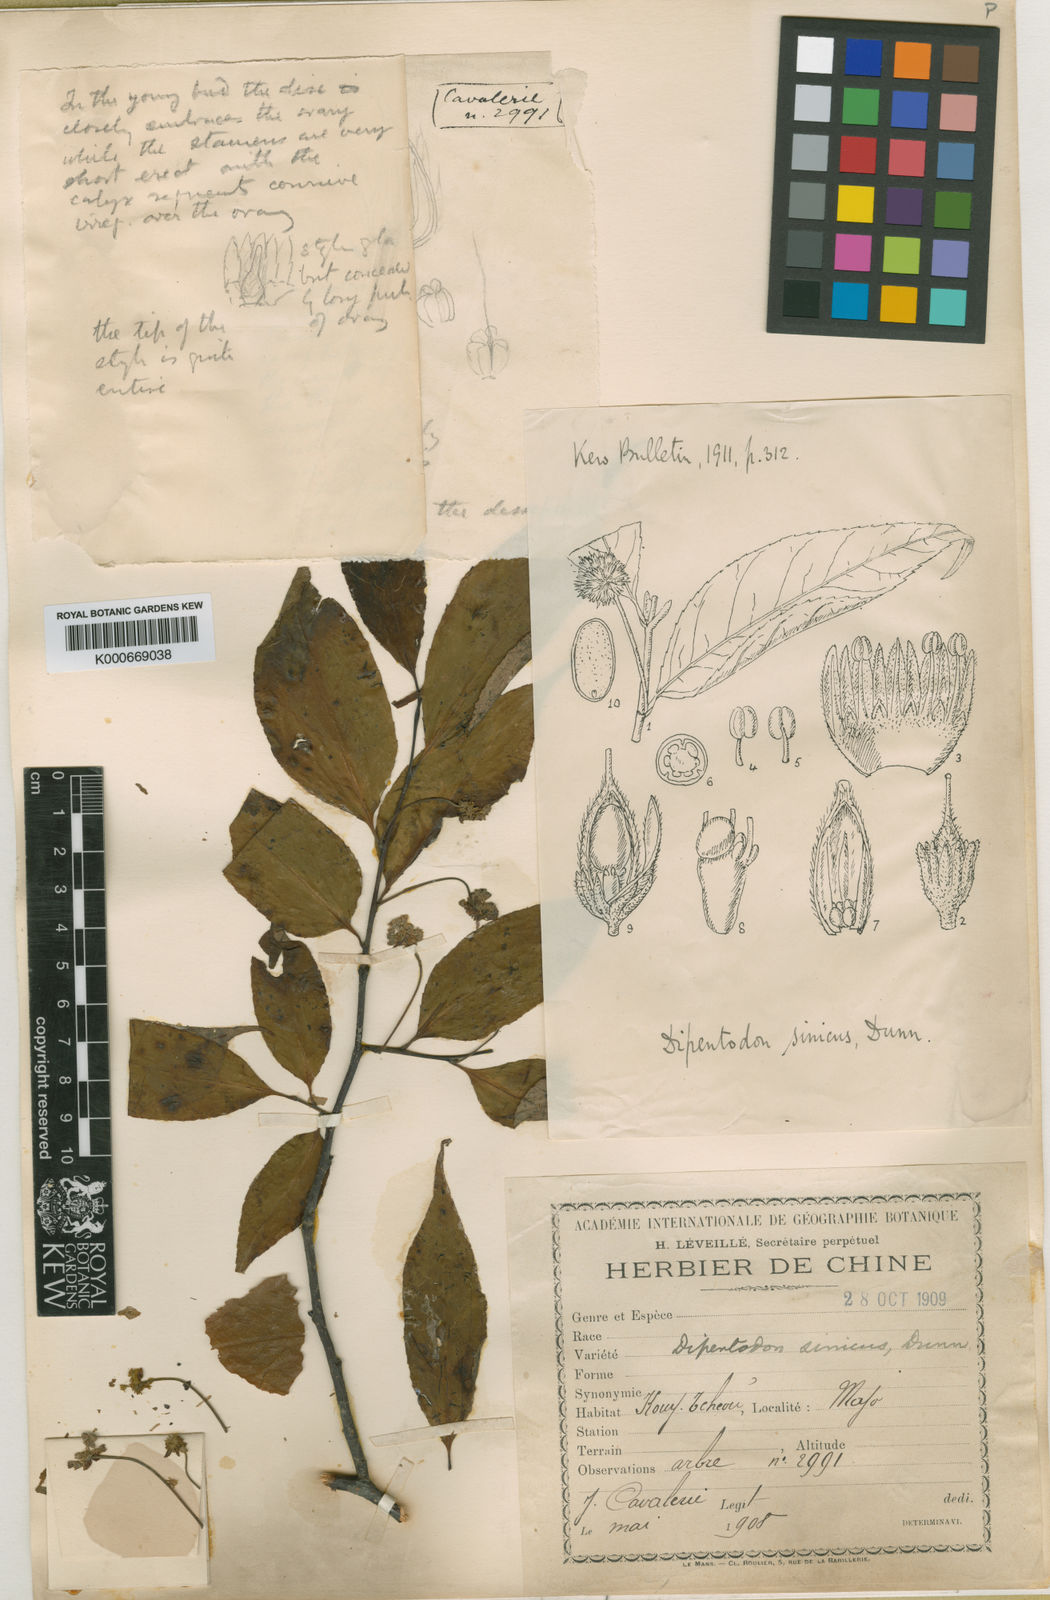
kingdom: Plantae
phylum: Tracheophyta
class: Magnoliopsida
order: Huerteales
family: Dipentodontaceae
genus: Dipentodon
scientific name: Dipentodon sinicus
